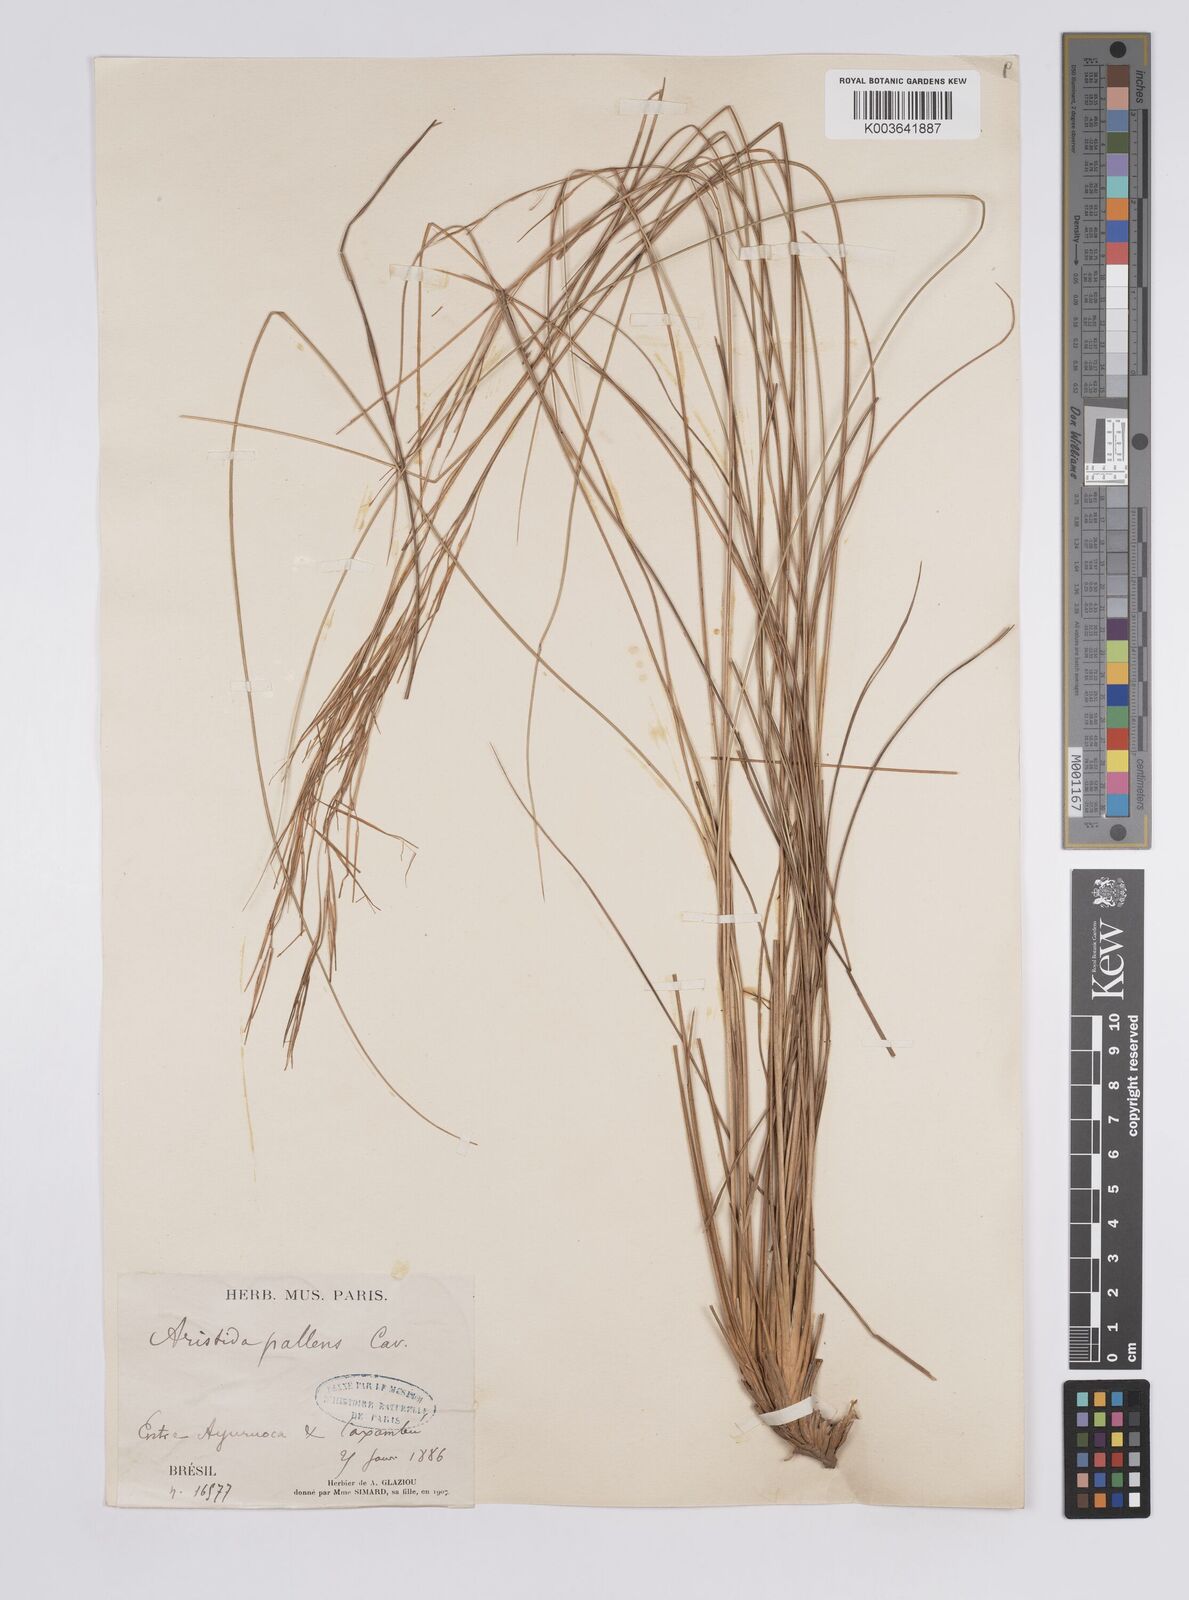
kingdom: Plantae
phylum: Tracheophyta
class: Liliopsida
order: Poales
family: Poaceae
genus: Aristida
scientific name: Aristida pallens
